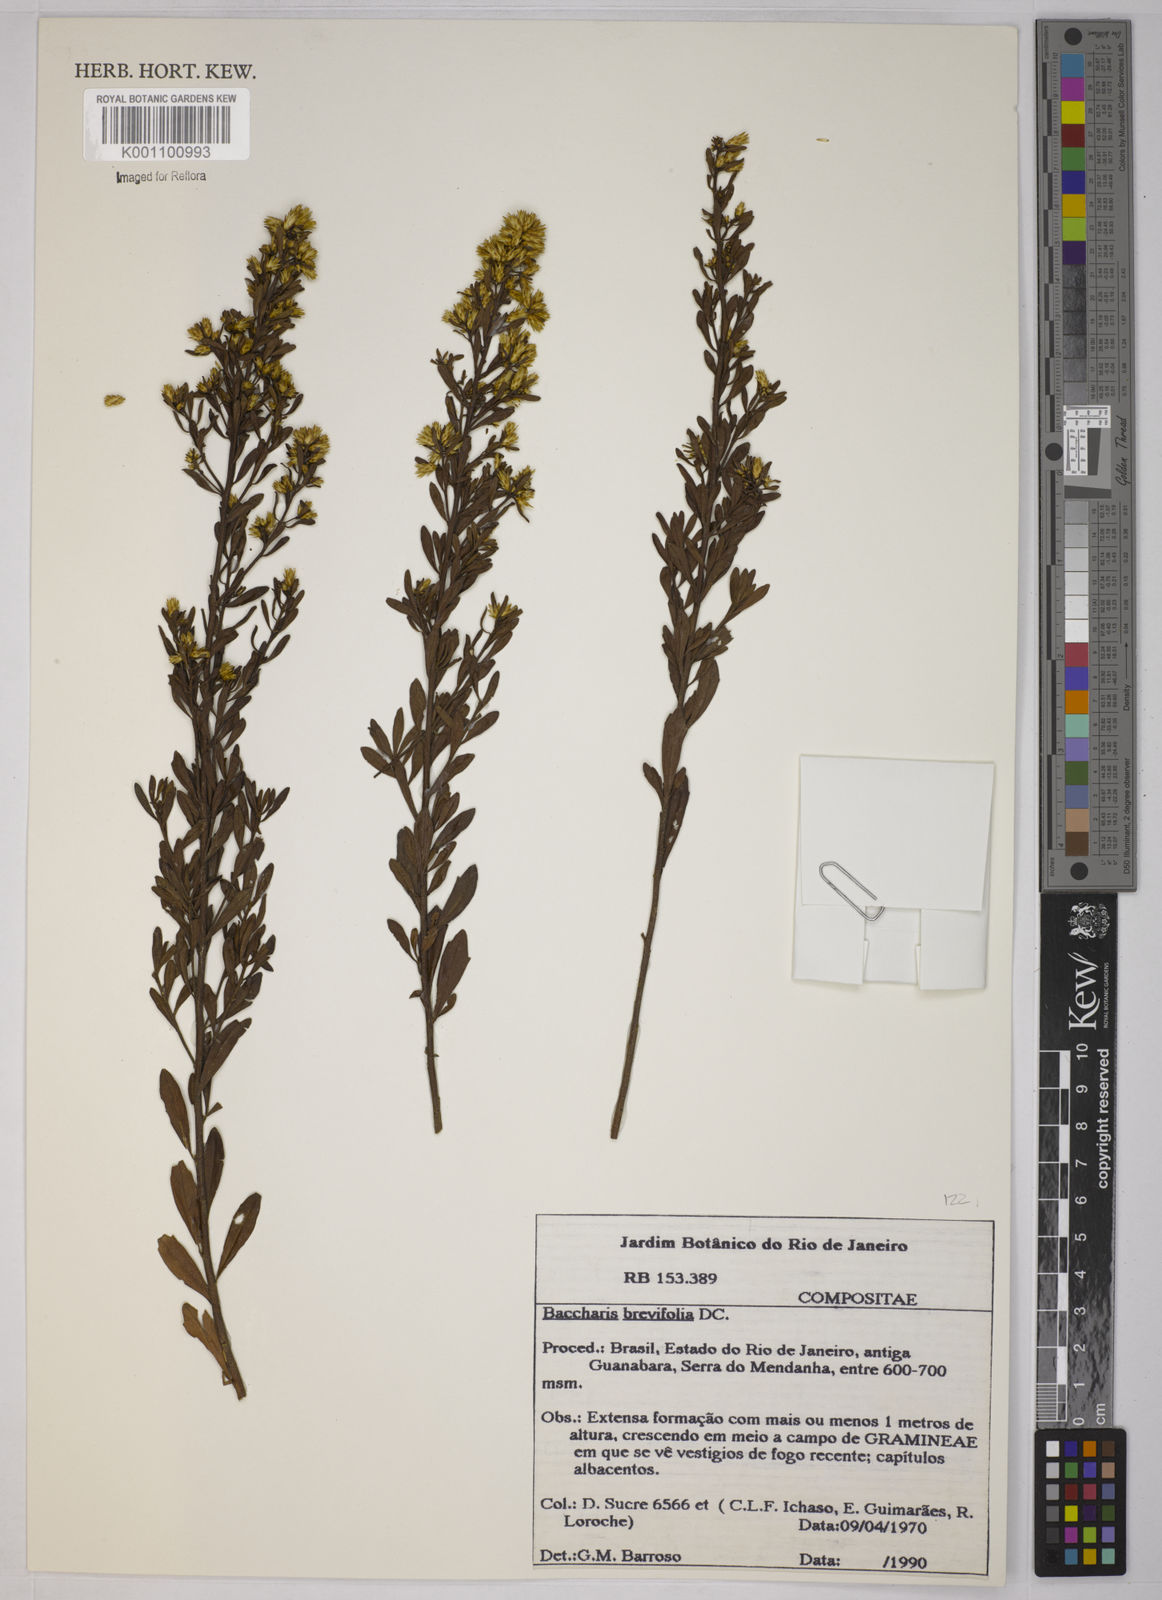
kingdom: Plantae
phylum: Tracheophyta
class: Magnoliopsida
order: Asterales
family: Asteraceae
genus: Baccharis
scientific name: Baccharis brevifolia
